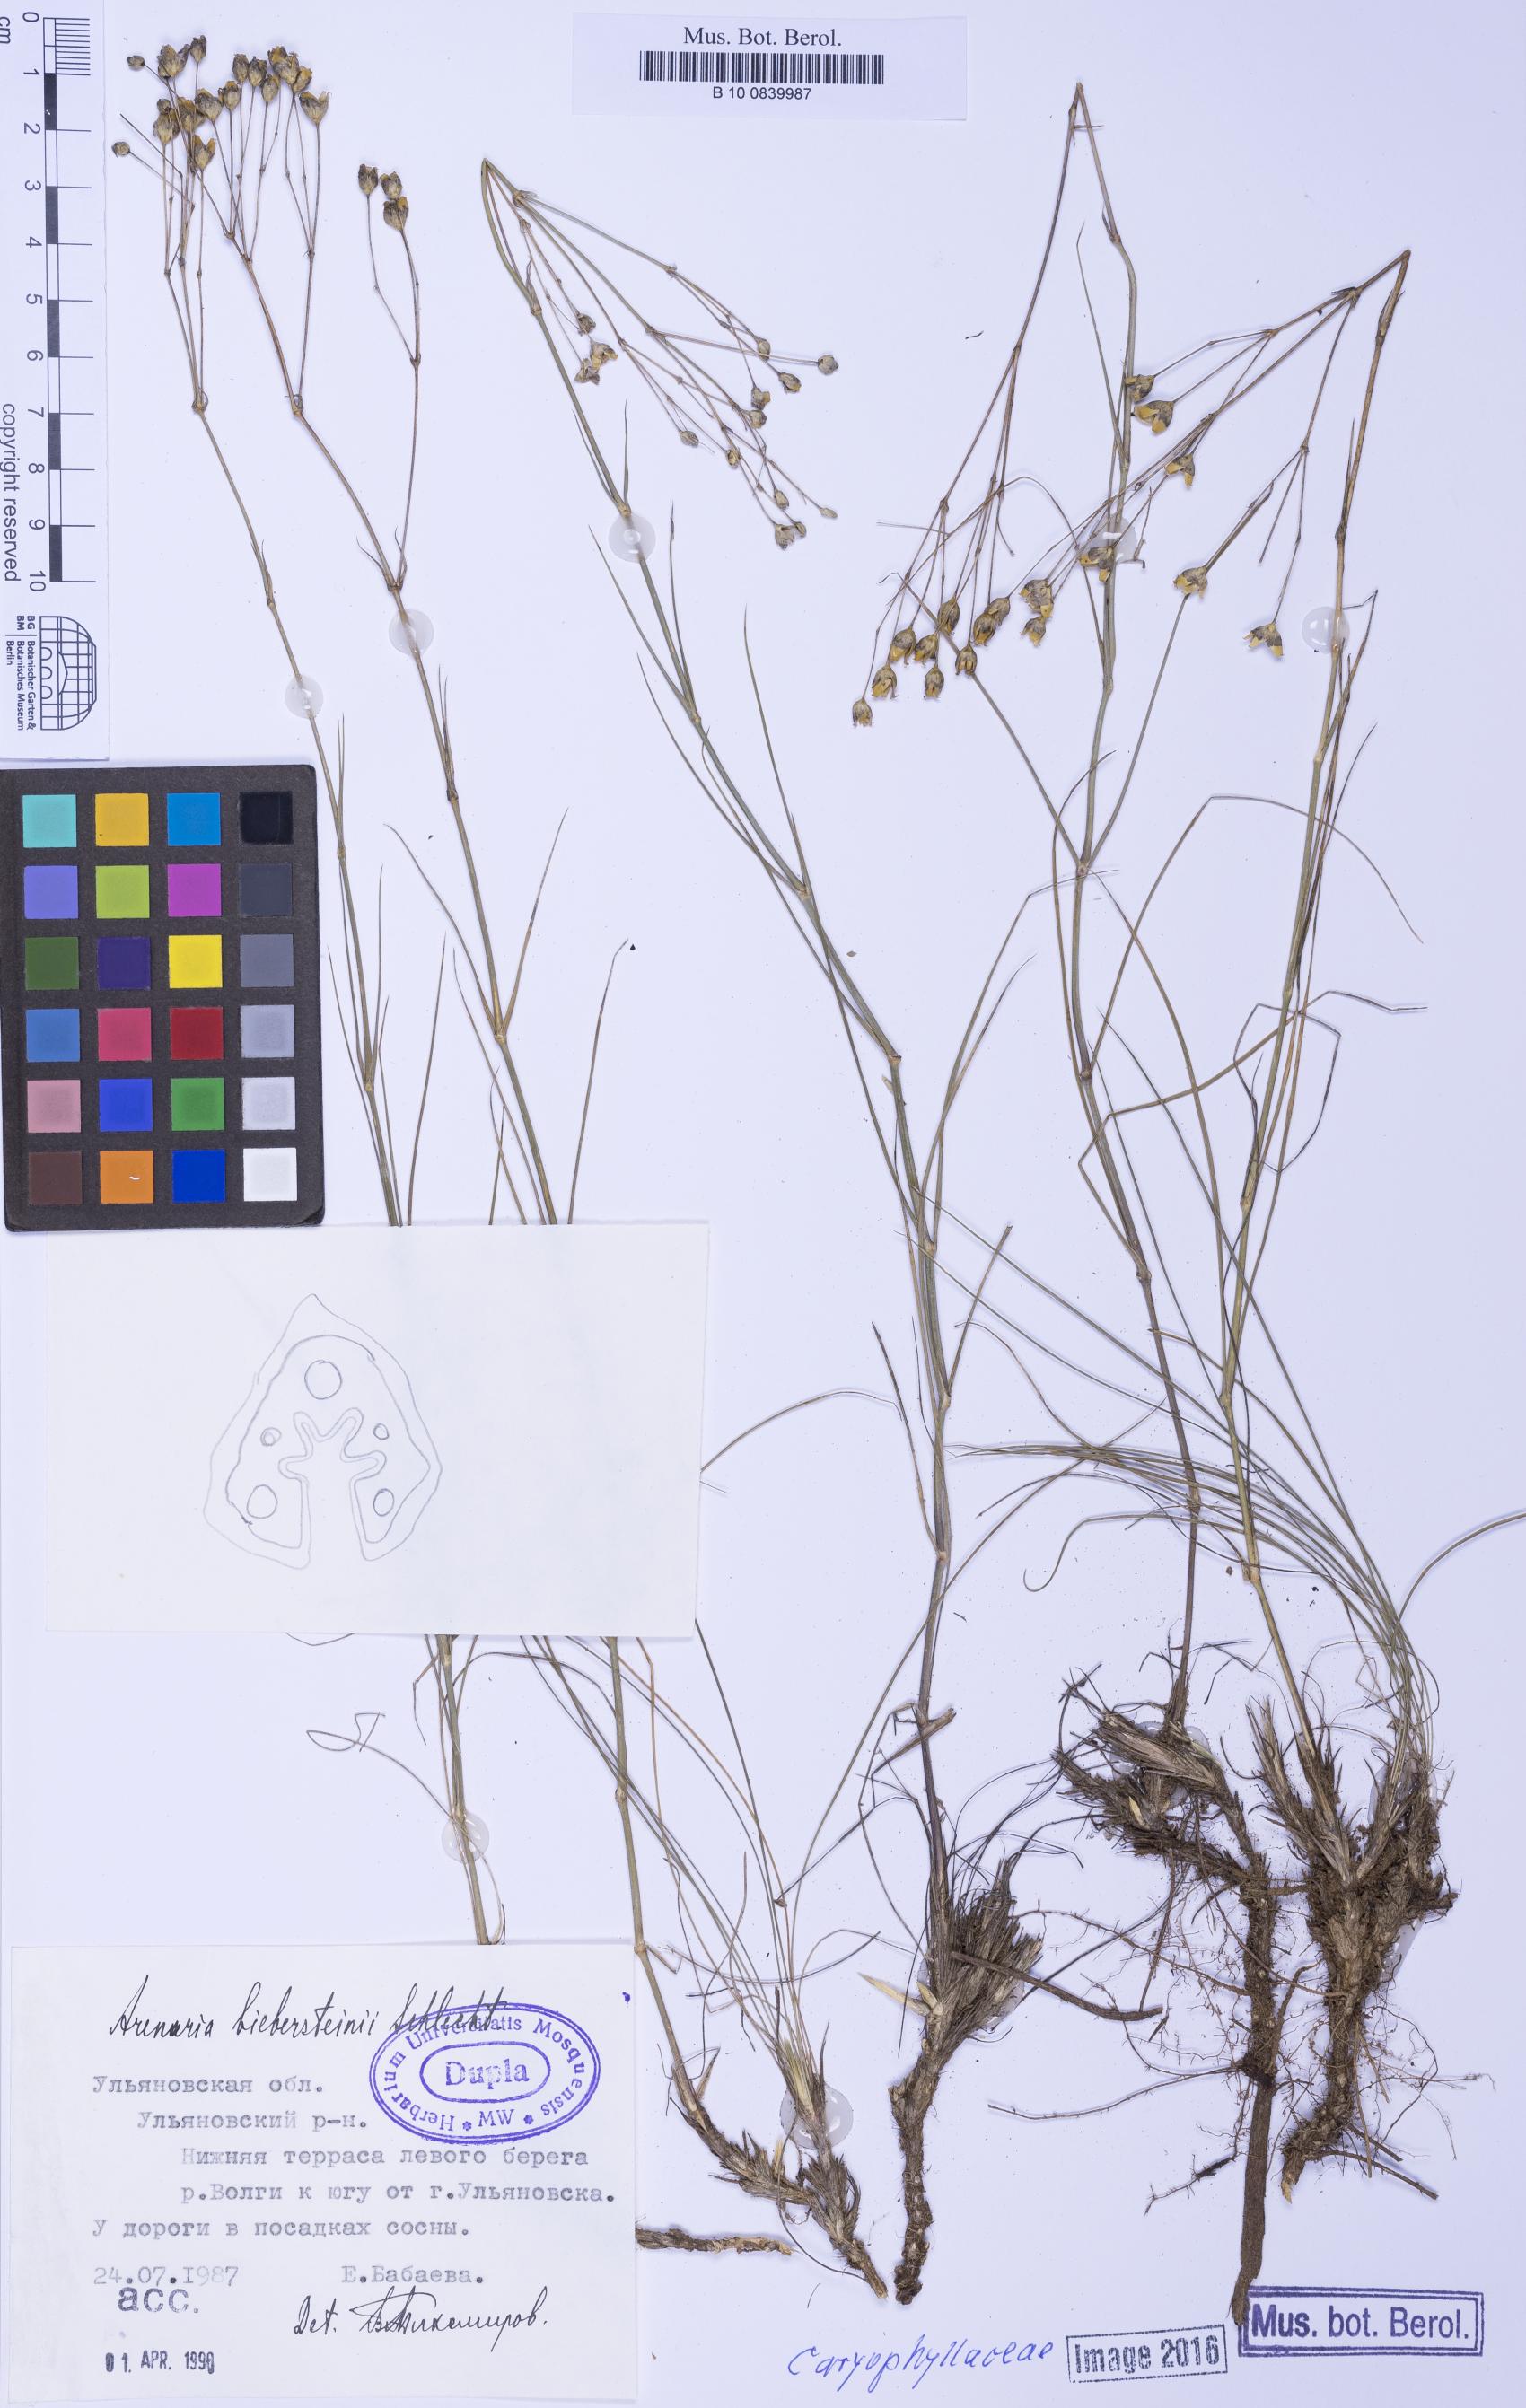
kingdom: Plantae
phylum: Tracheophyta
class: Magnoliopsida
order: Caryophyllales
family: Caryophyllaceae
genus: Eremogone
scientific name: Eremogone biebersteinii
